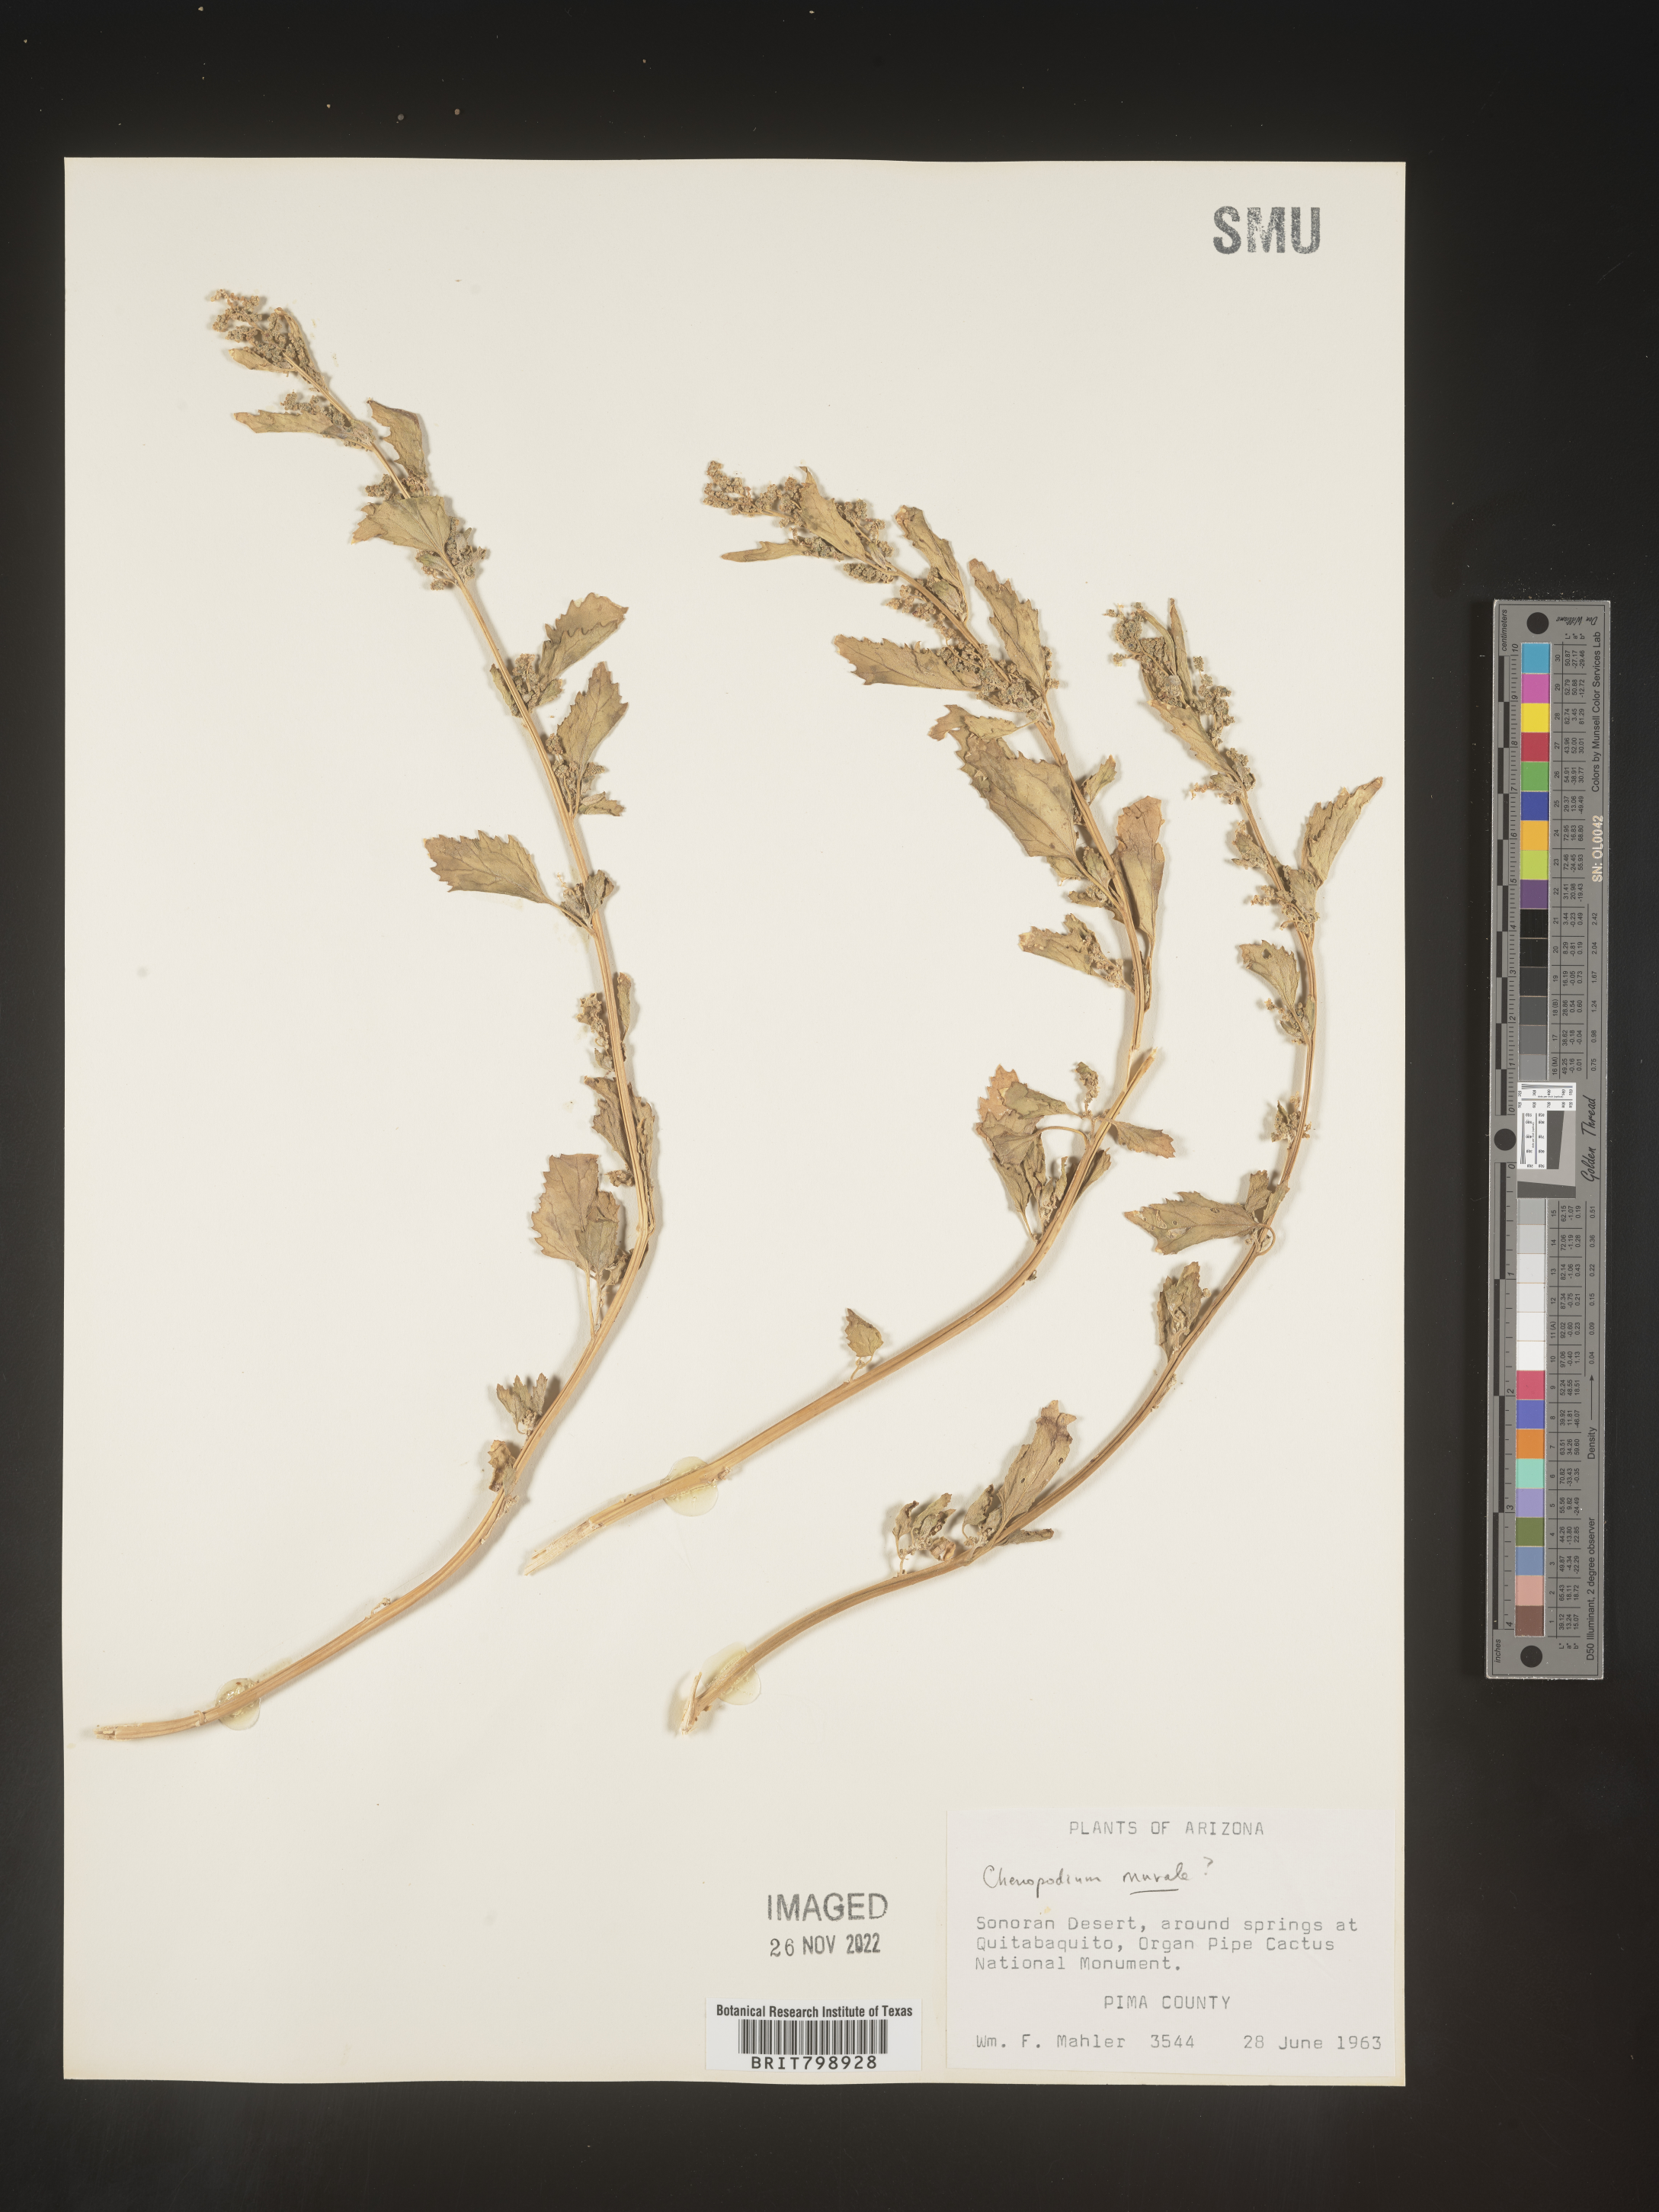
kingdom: Plantae
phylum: Tracheophyta
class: Magnoliopsida
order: Caryophyllales
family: Amaranthaceae
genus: Chenopodiastrum
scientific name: Chenopodiastrum murale
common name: Sowbane
